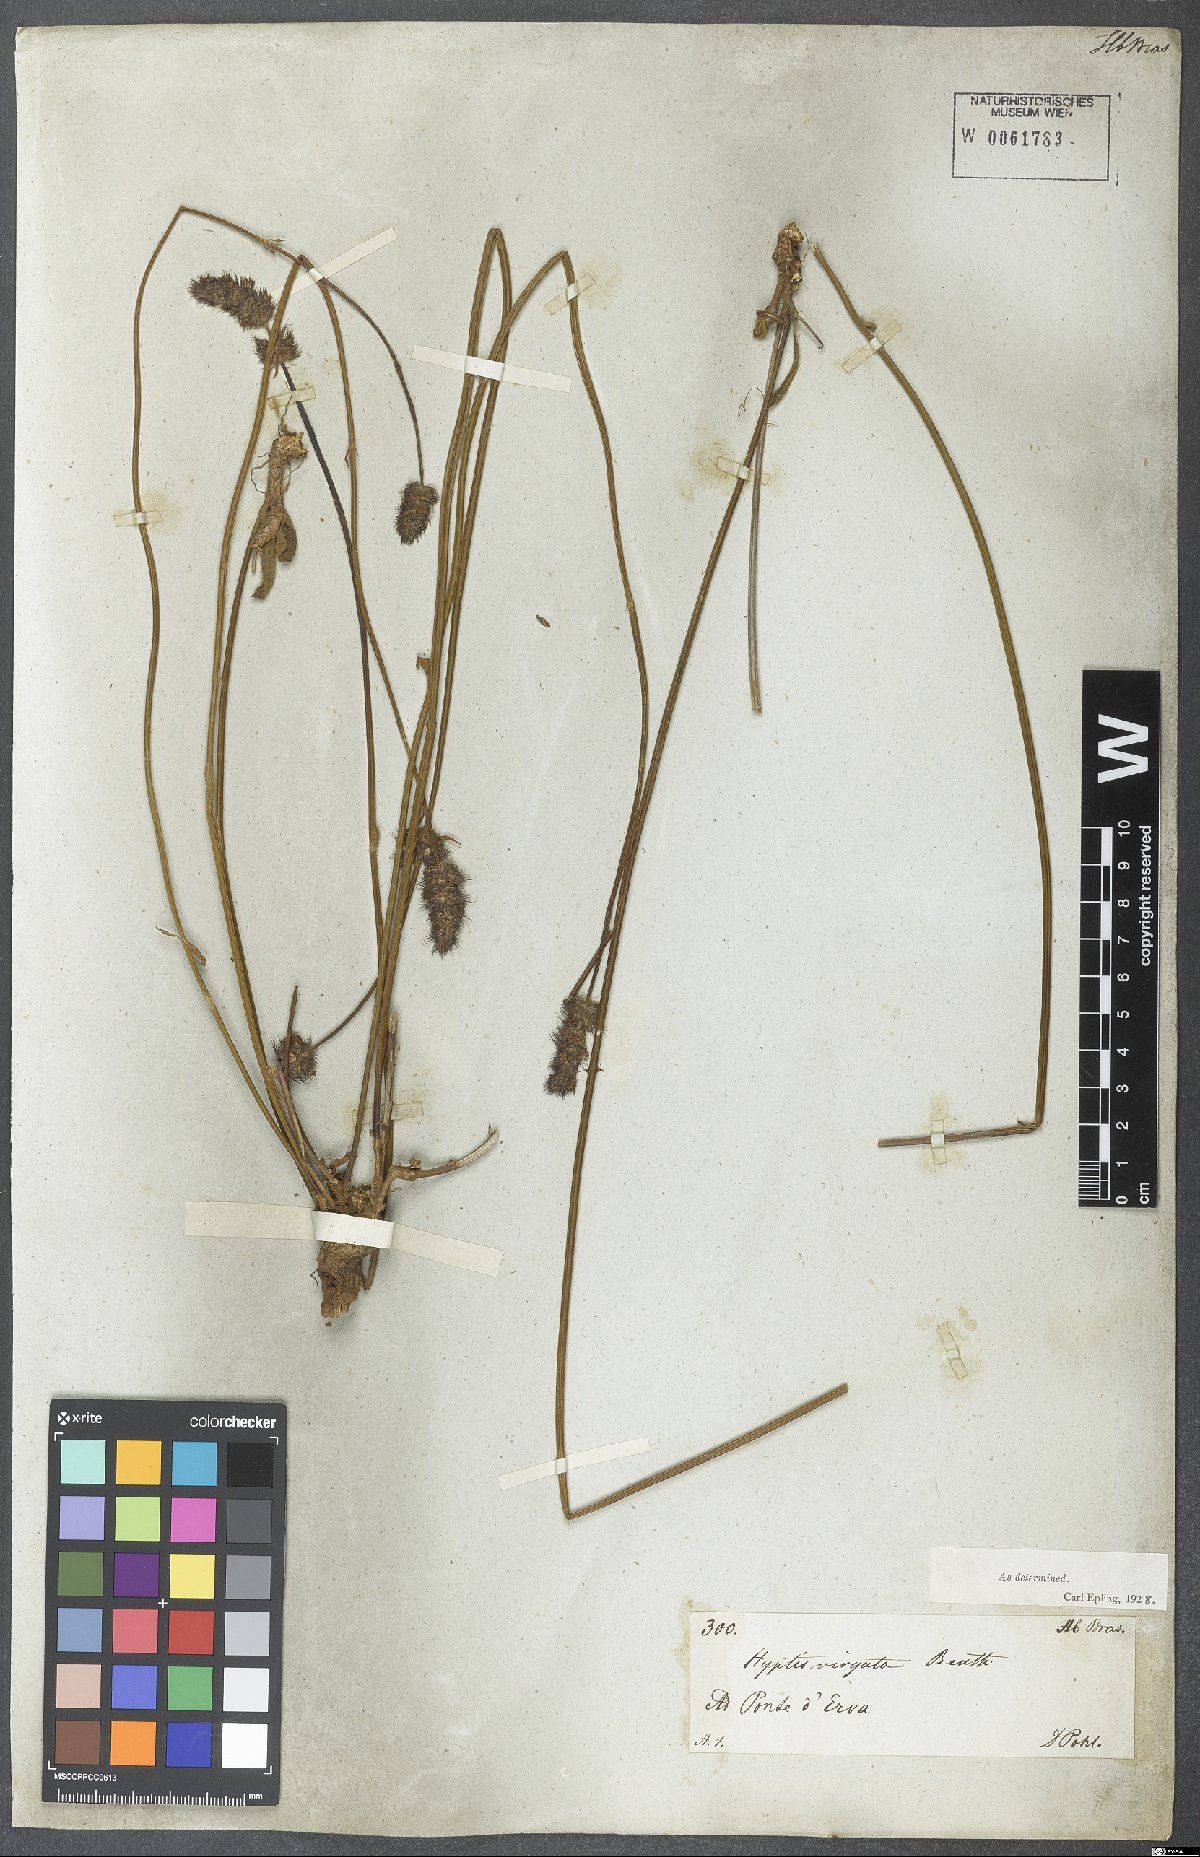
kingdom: Plantae
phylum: Tracheophyta
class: Magnoliopsida
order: Lamiales
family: Lamiaceae
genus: Gymneia
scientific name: Gymneia virgata
